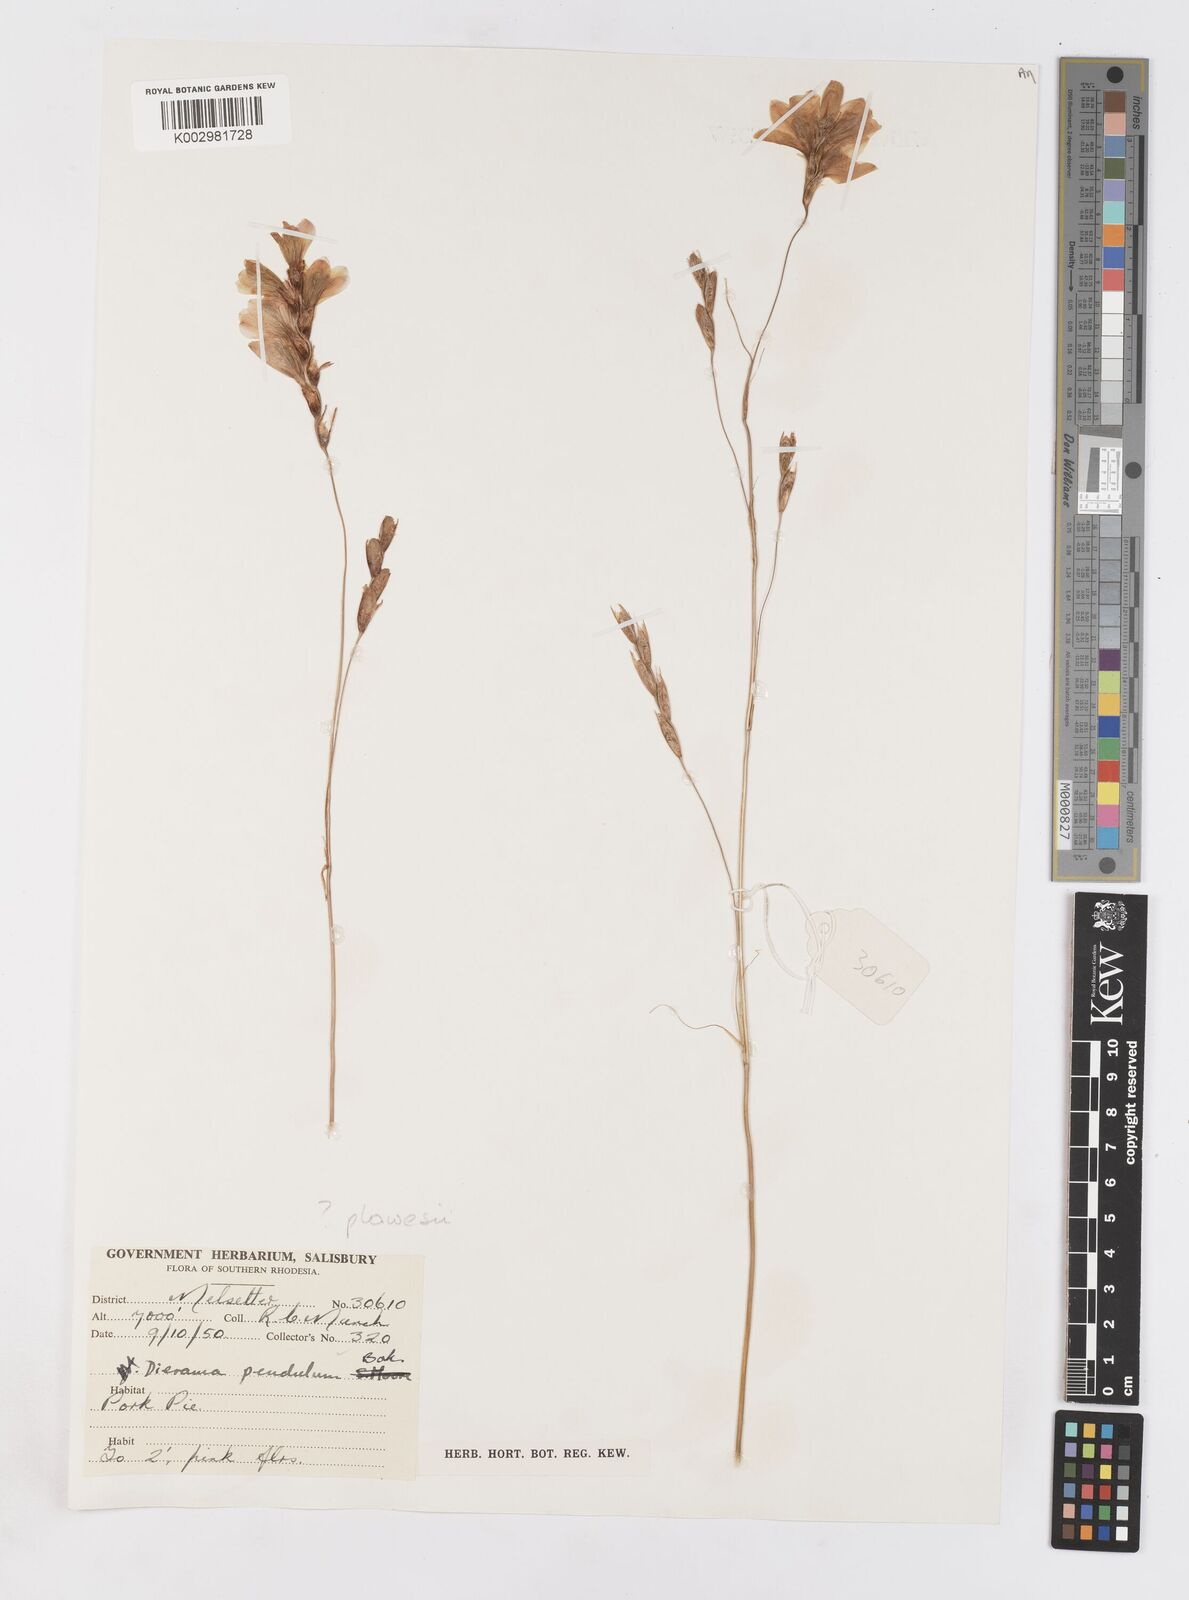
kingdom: Plantae
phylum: Tracheophyta
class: Liliopsida
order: Asparagales
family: Iridaceae
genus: Dierama
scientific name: Dierama
